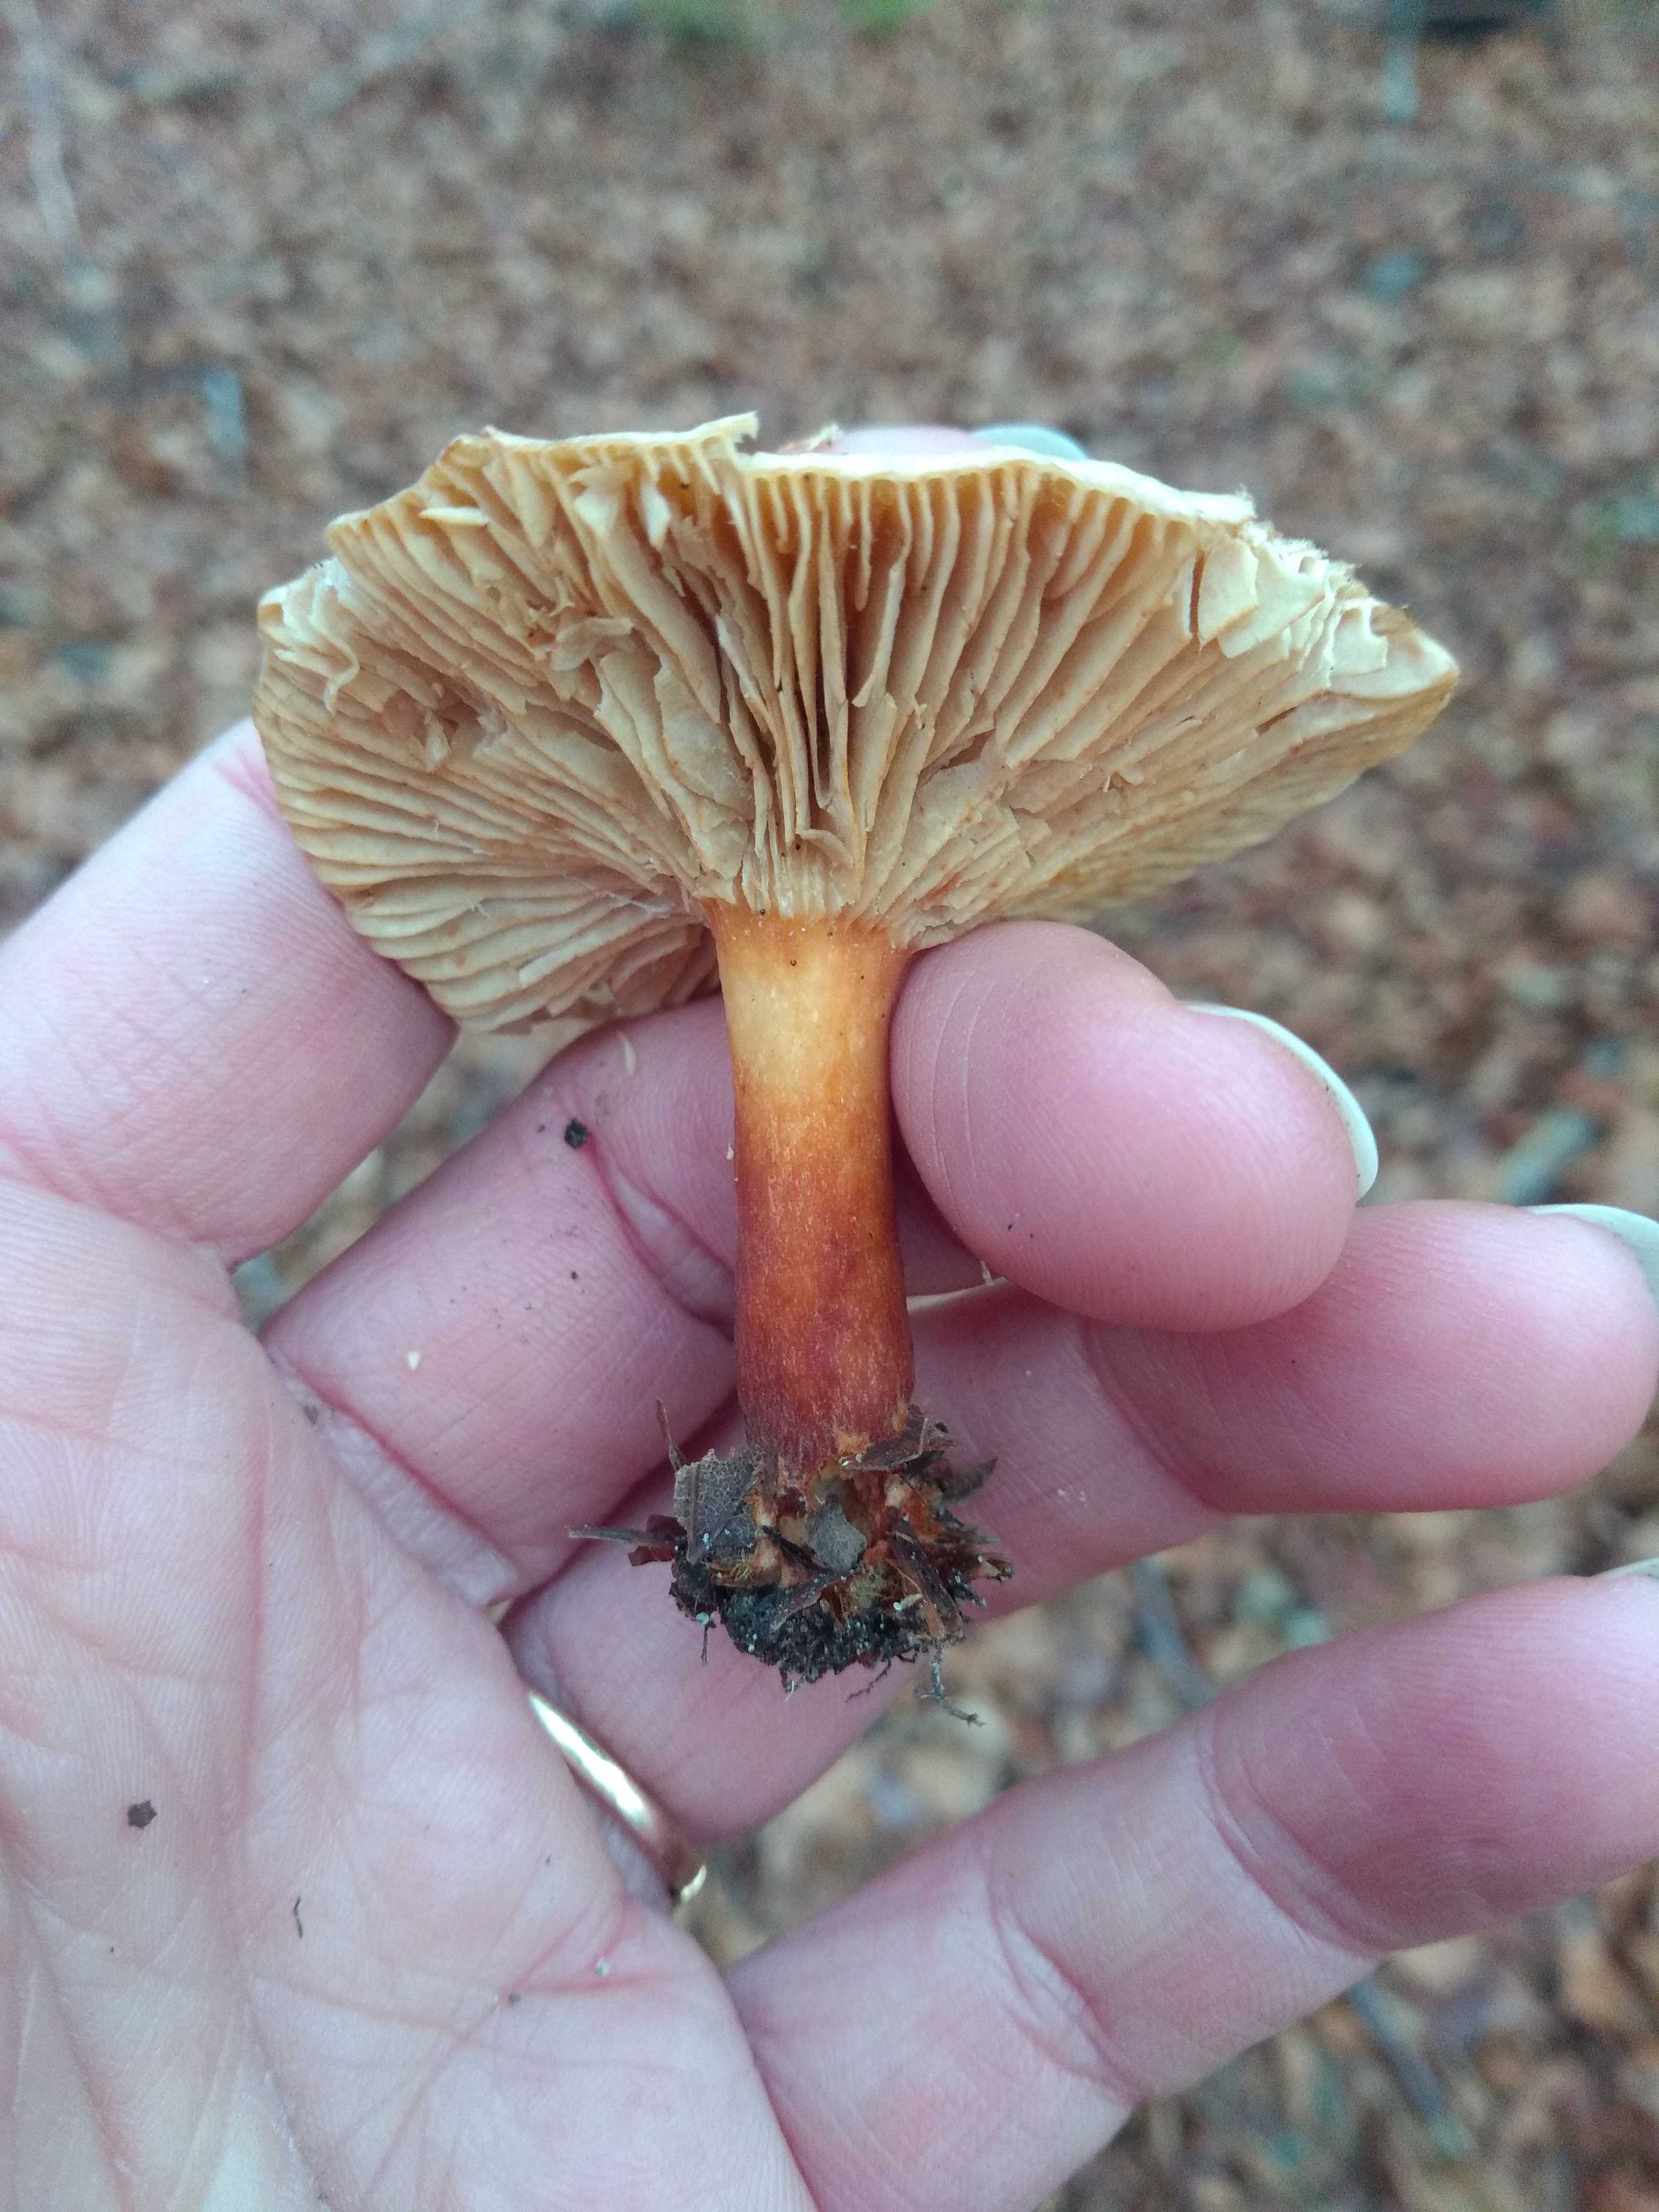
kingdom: Fungi
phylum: Basidiomycota
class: Agaricomycetes
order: Russulales
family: Russulaceae
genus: Lactarius
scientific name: Lactarius
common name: mælkehat
